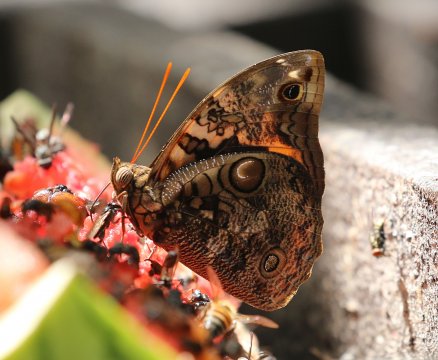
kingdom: Animalia
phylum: Arthropoda
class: Insecta
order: Lepidoptera
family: Nymphalidae
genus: Opsiphanes
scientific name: Opsiphanes cassina
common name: Split-banded Owl-Butterfly
